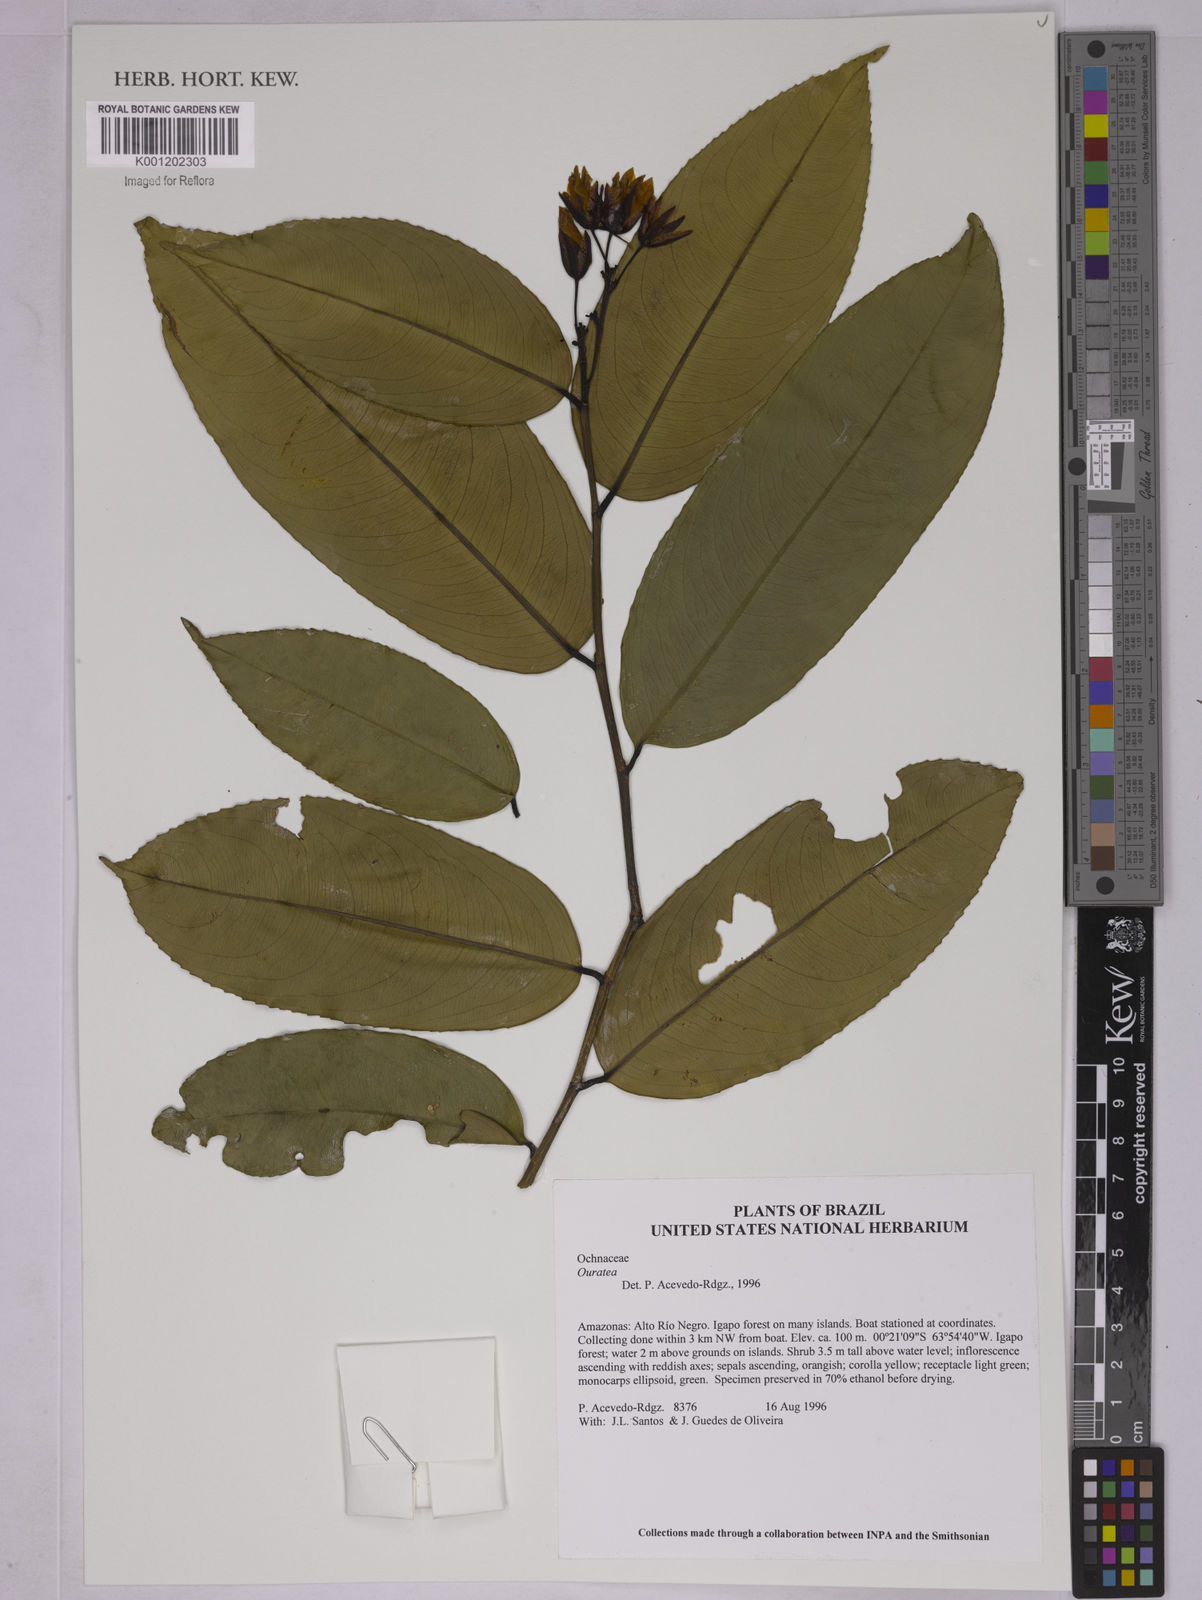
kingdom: Plantae
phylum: Tracheophyta
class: Magnoliopsida
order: Malpighiales
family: Ochnaceae
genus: Ouratea
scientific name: Ouratea
